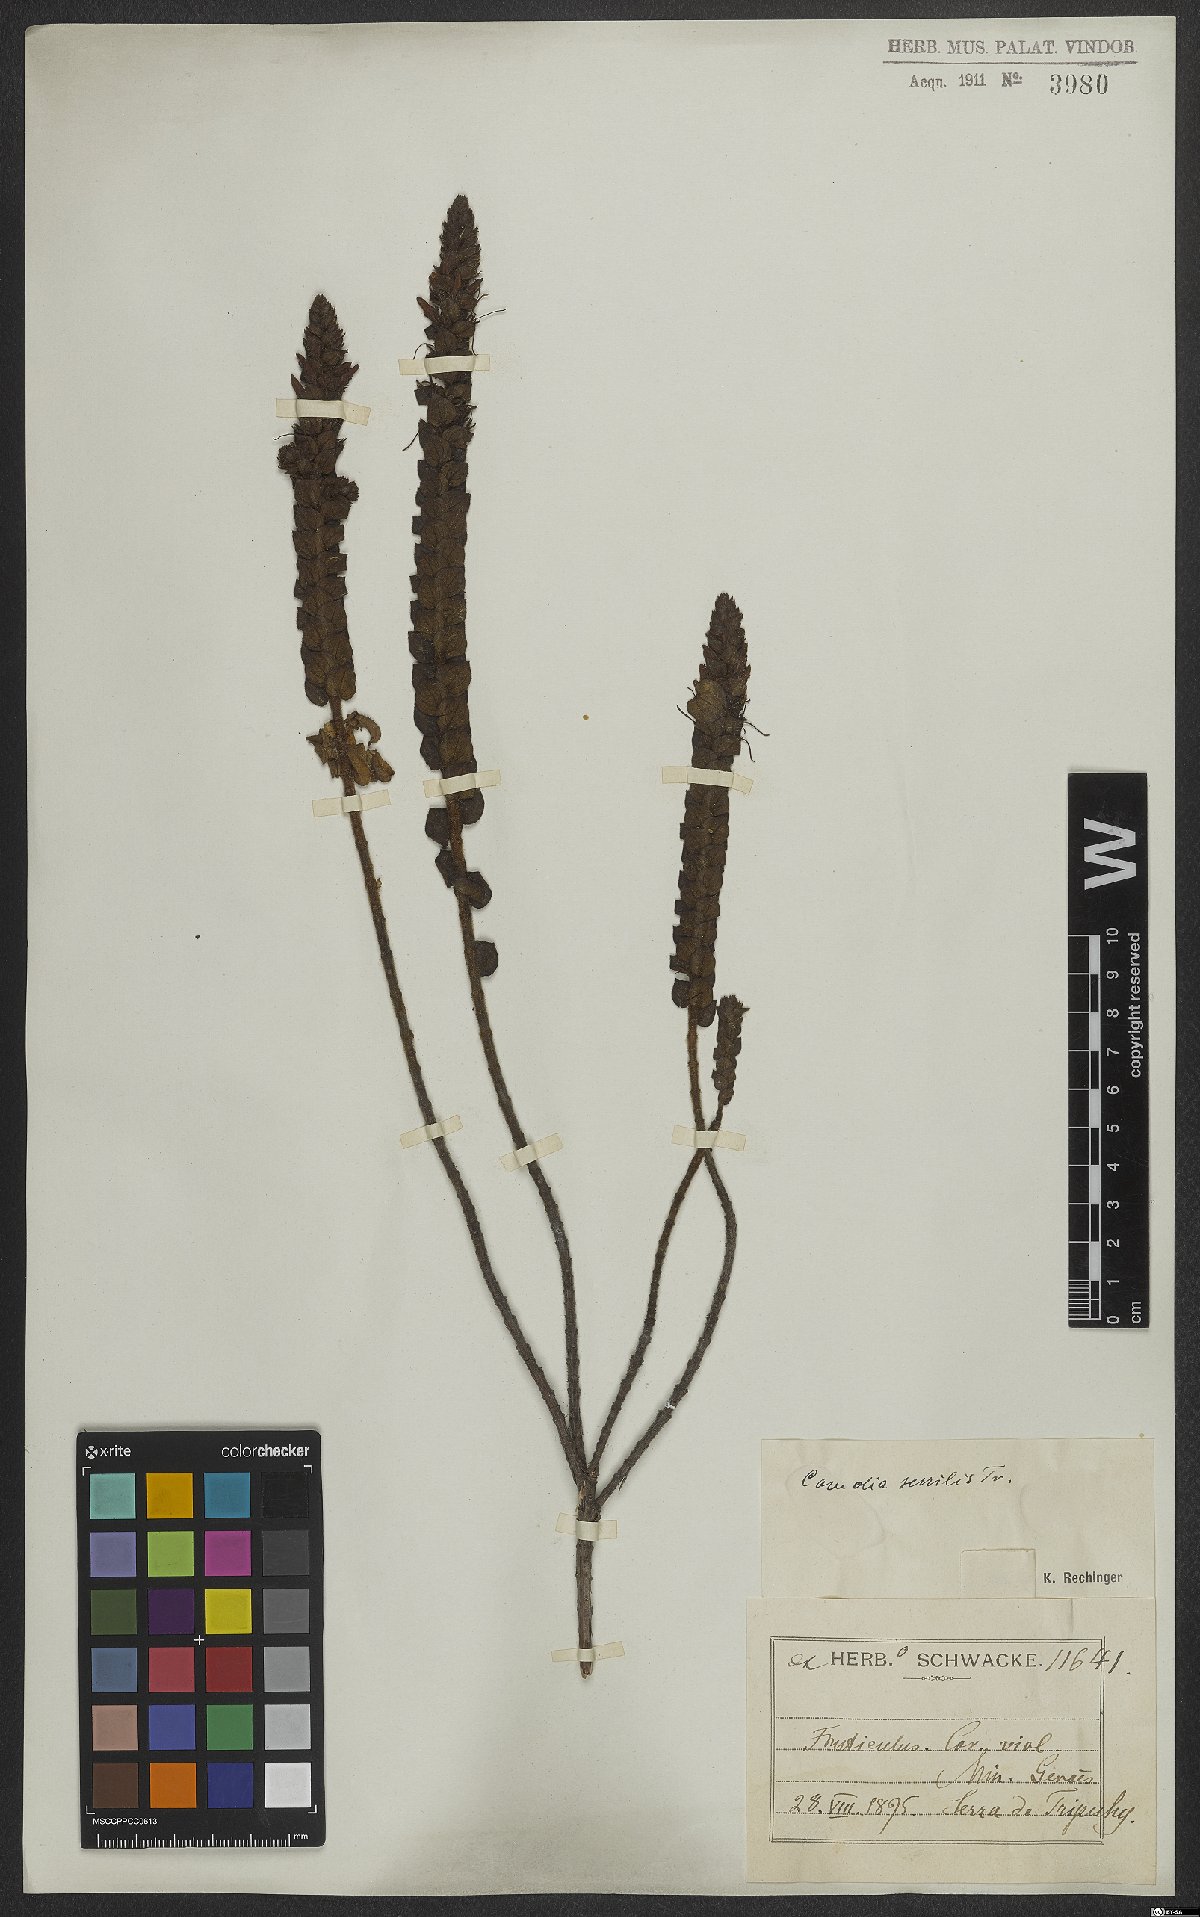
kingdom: Plantae
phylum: Tracheophyta
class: Magnoliopsida
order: Myrtales
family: Melastomataceae
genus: Fritzschia
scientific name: Fritzschia sessilis
